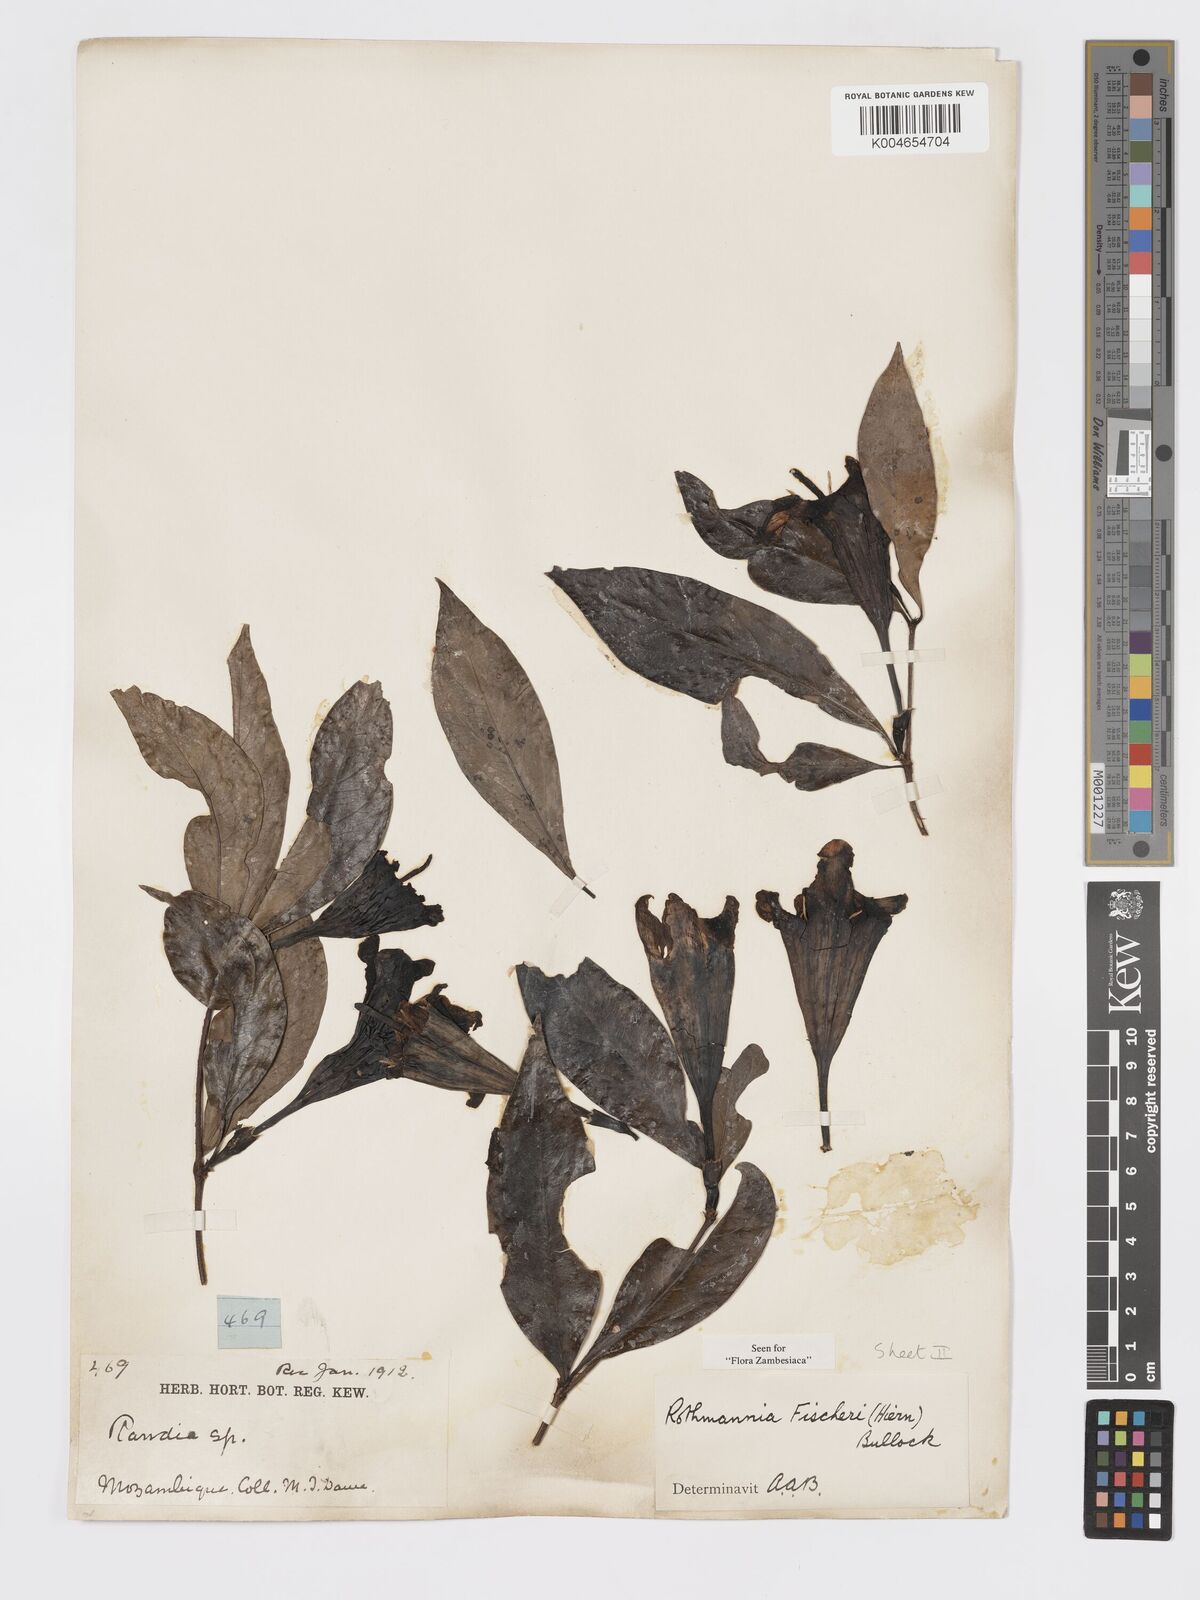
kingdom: Plantae
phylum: Tracheophyta
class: Magnoliopsida
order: Gentianales
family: Rubiaceae
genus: Rothmannia
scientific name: Rothmannia fischeri
